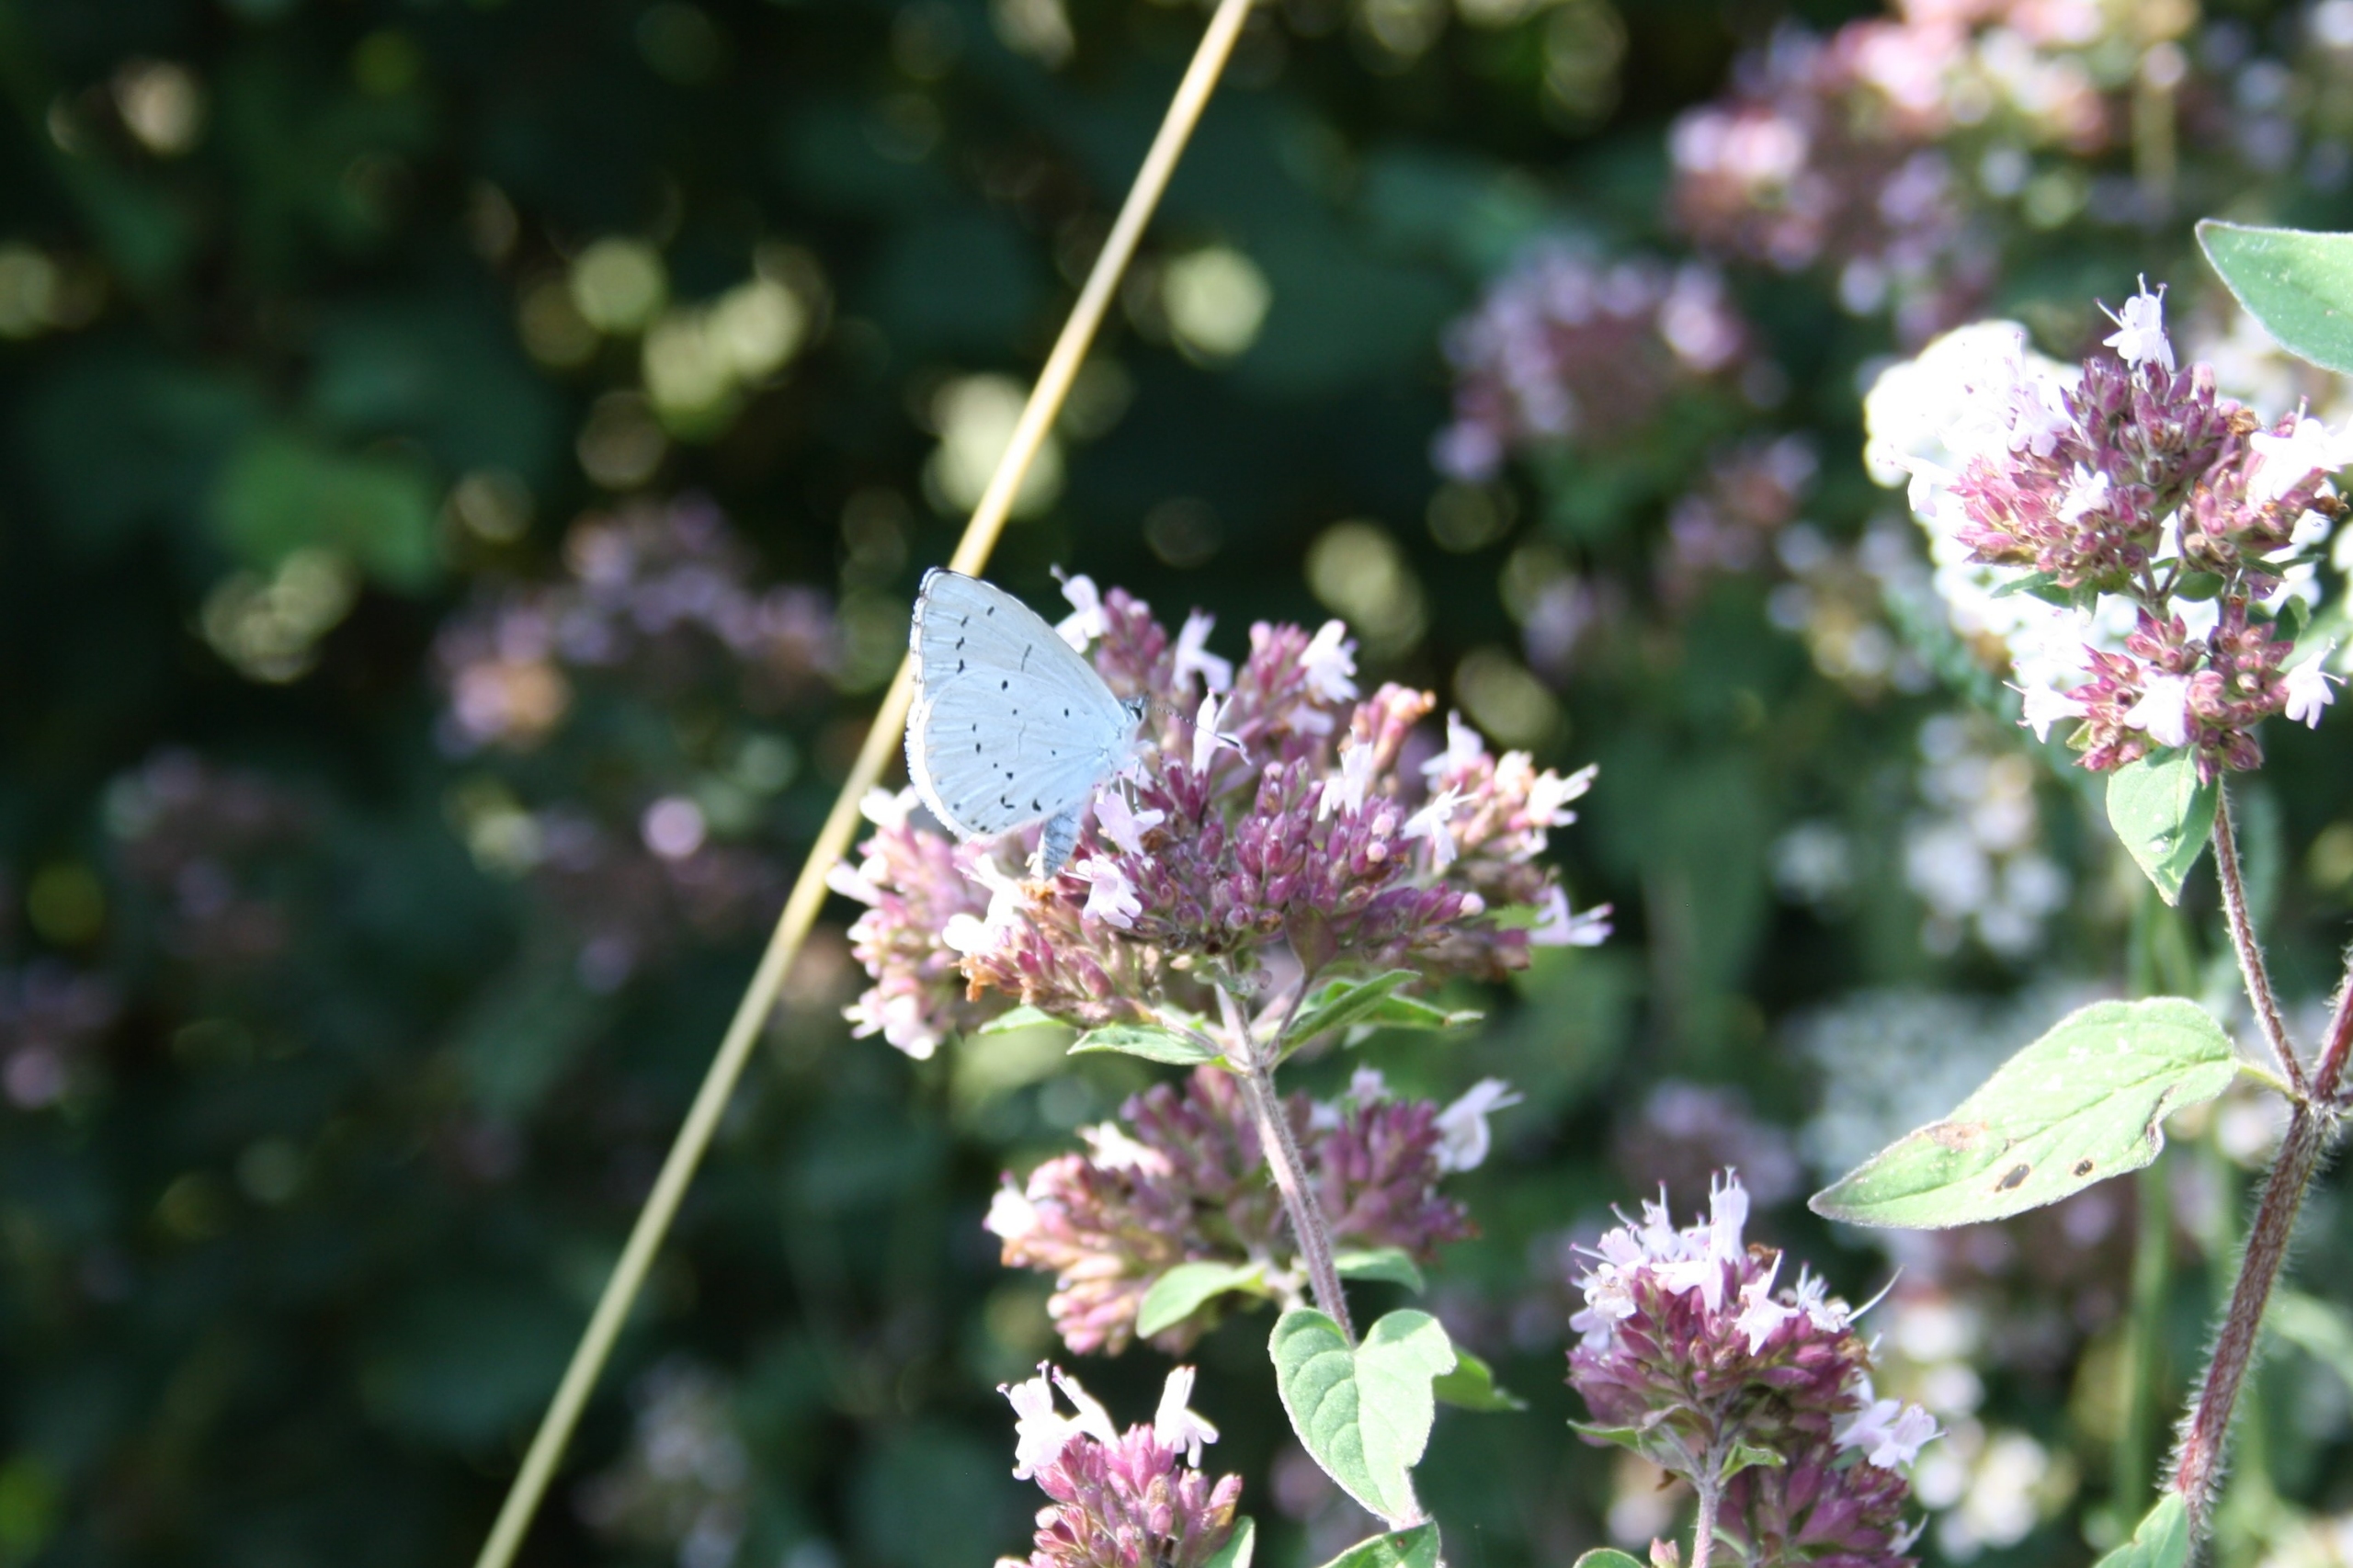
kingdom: Animalia
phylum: Arthropoda
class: Insecta
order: Lepidoptera
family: Lycaenidae
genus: Celastrina
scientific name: Celastrina argiolus
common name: Skovblåfugl
